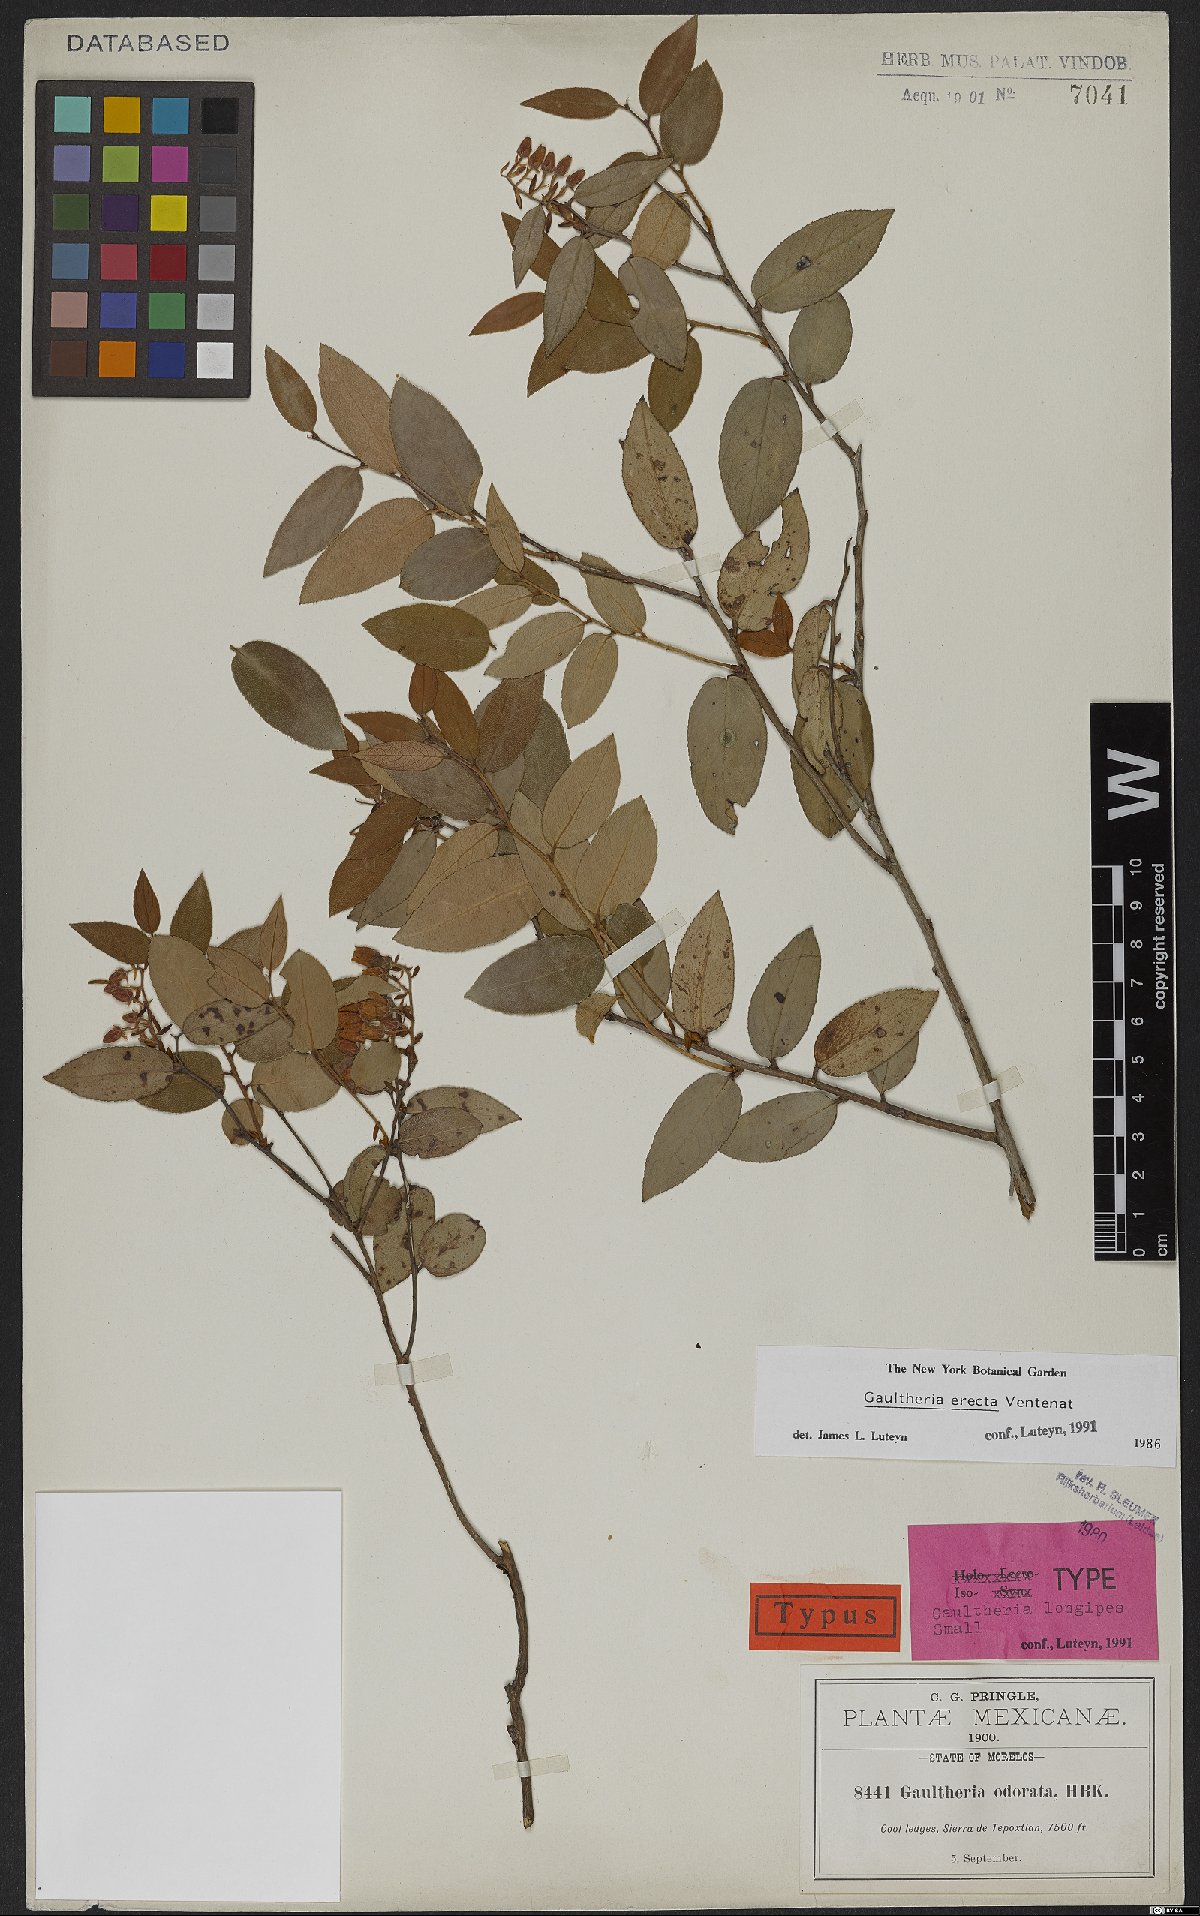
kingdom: Plantae
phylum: Tracheophyta
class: Magnoliopsida
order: Ericales
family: Ericaceae
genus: Gaultheria
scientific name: Gaultheria erecta
